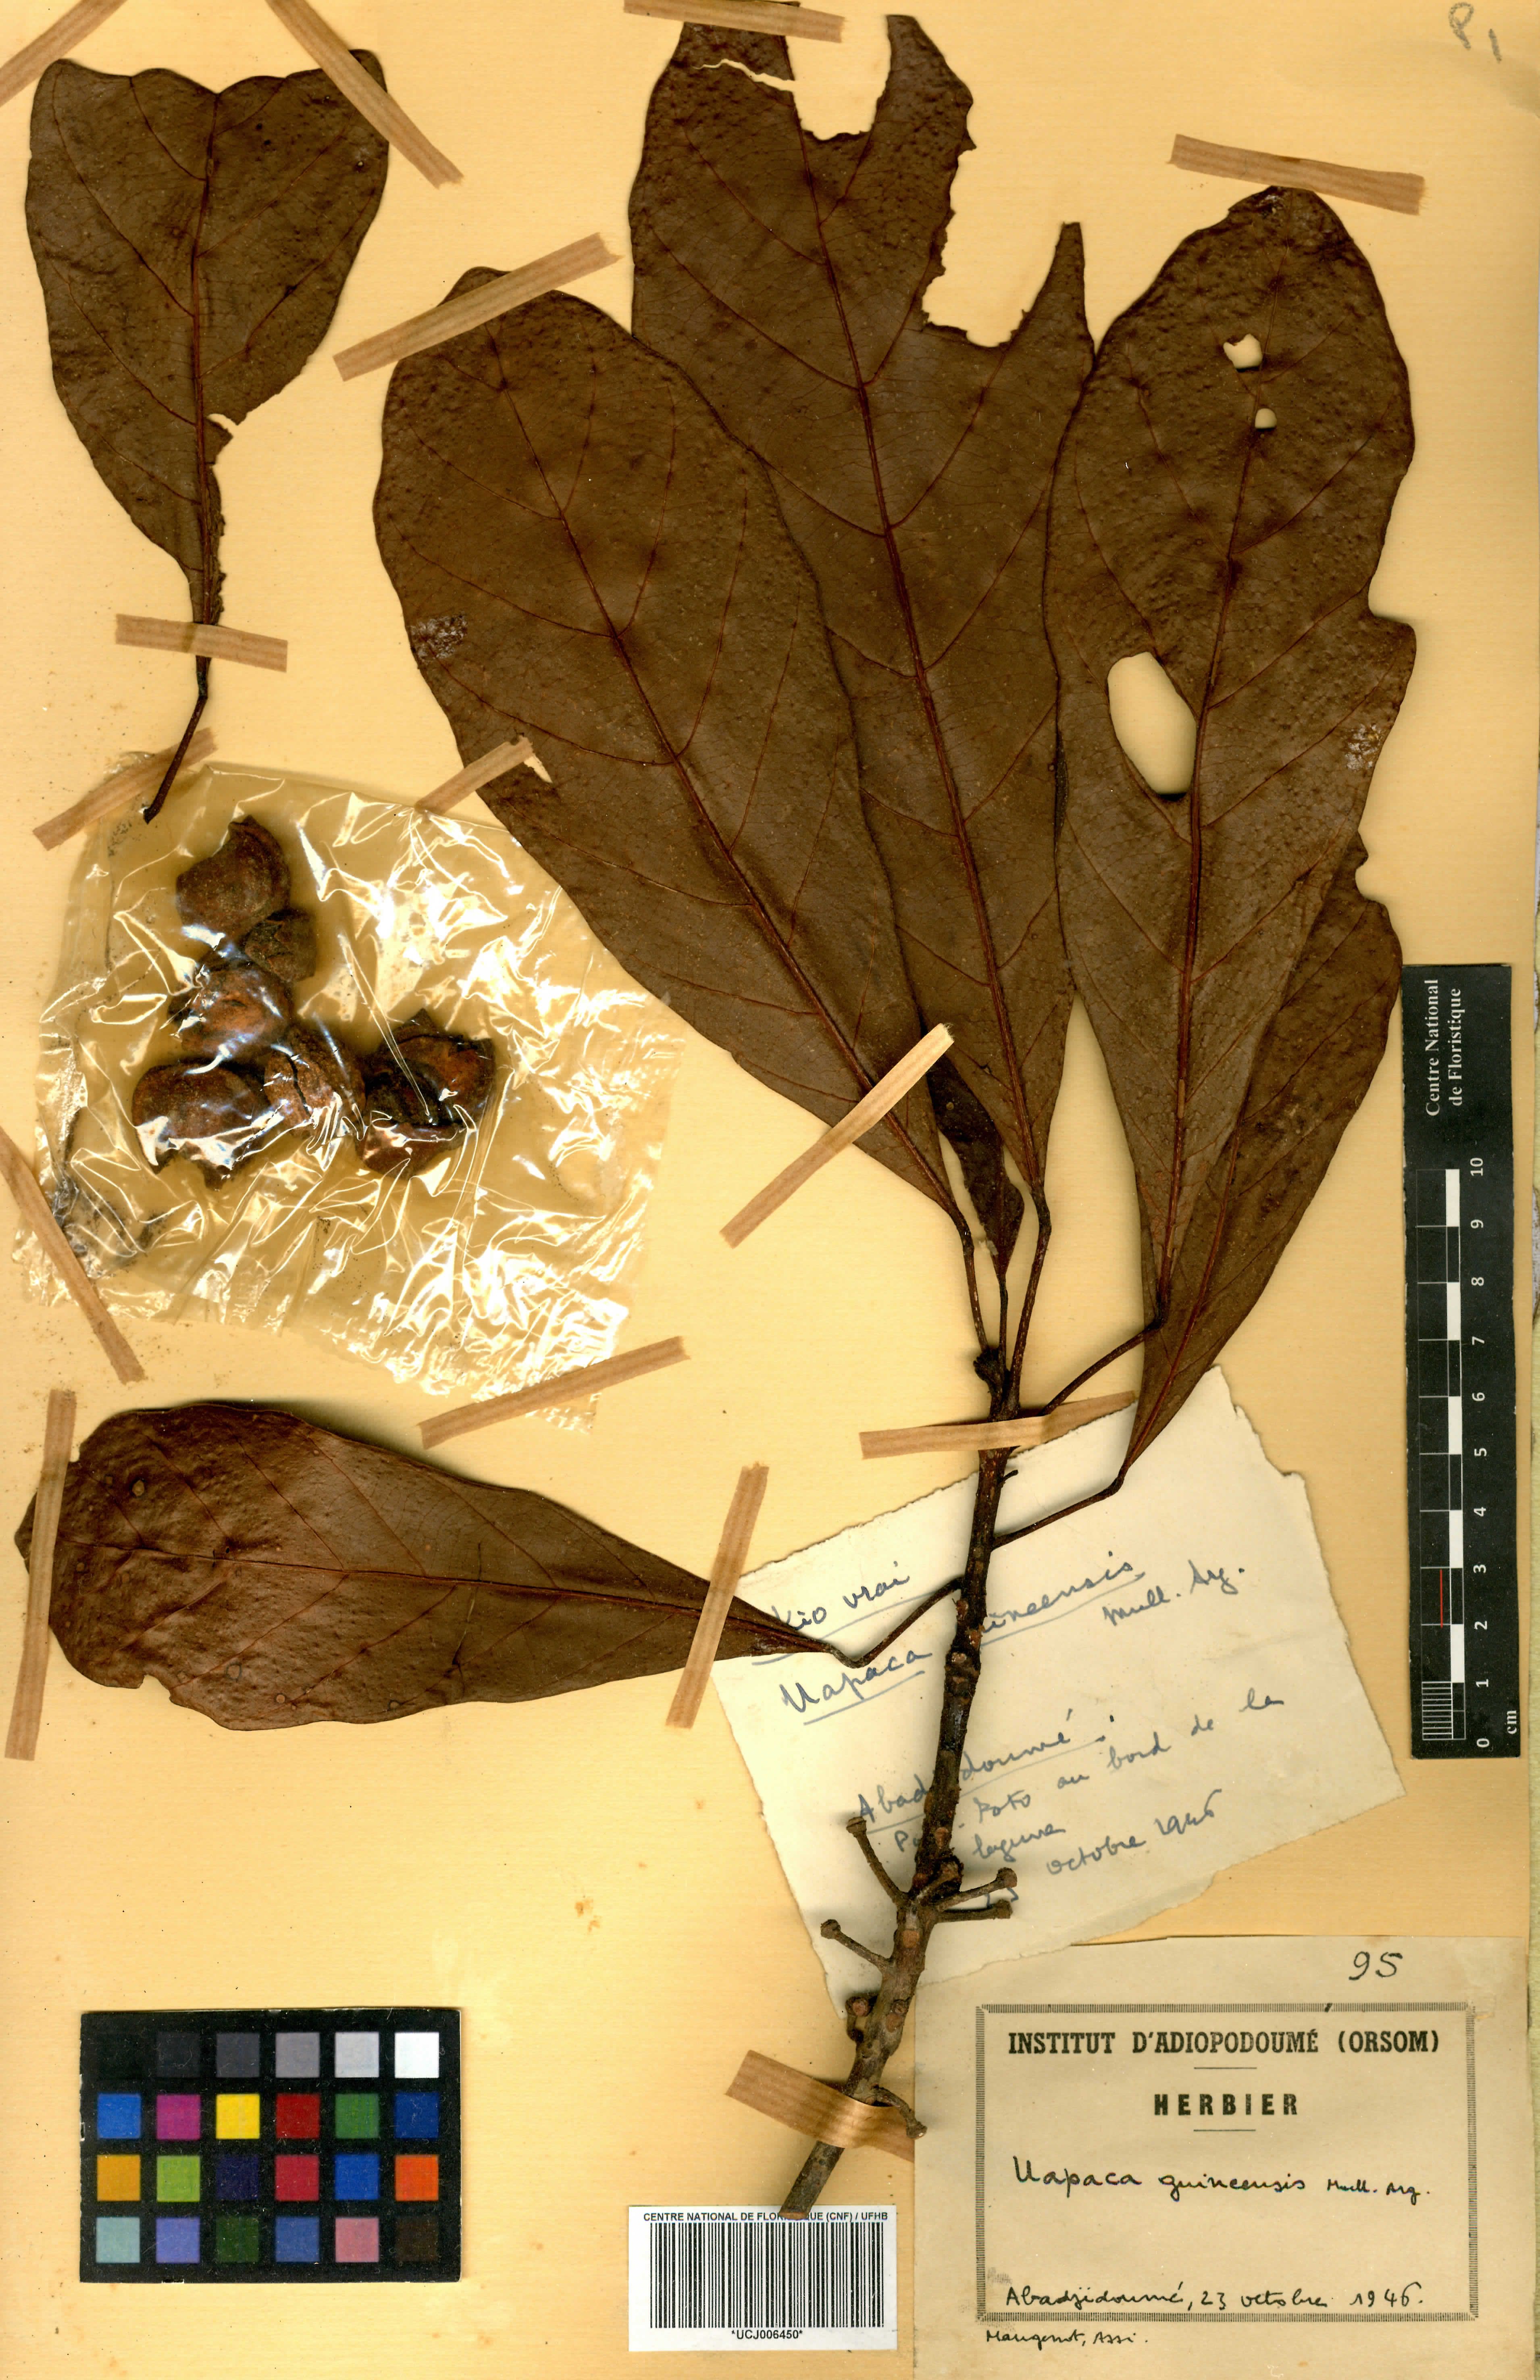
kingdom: Plantae
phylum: Tracheophyta
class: Magnoliopsida
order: Malpighiales
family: Phyllanthaceae
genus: Uapaca
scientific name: Uapaca guineensis
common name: Sugar-plum
